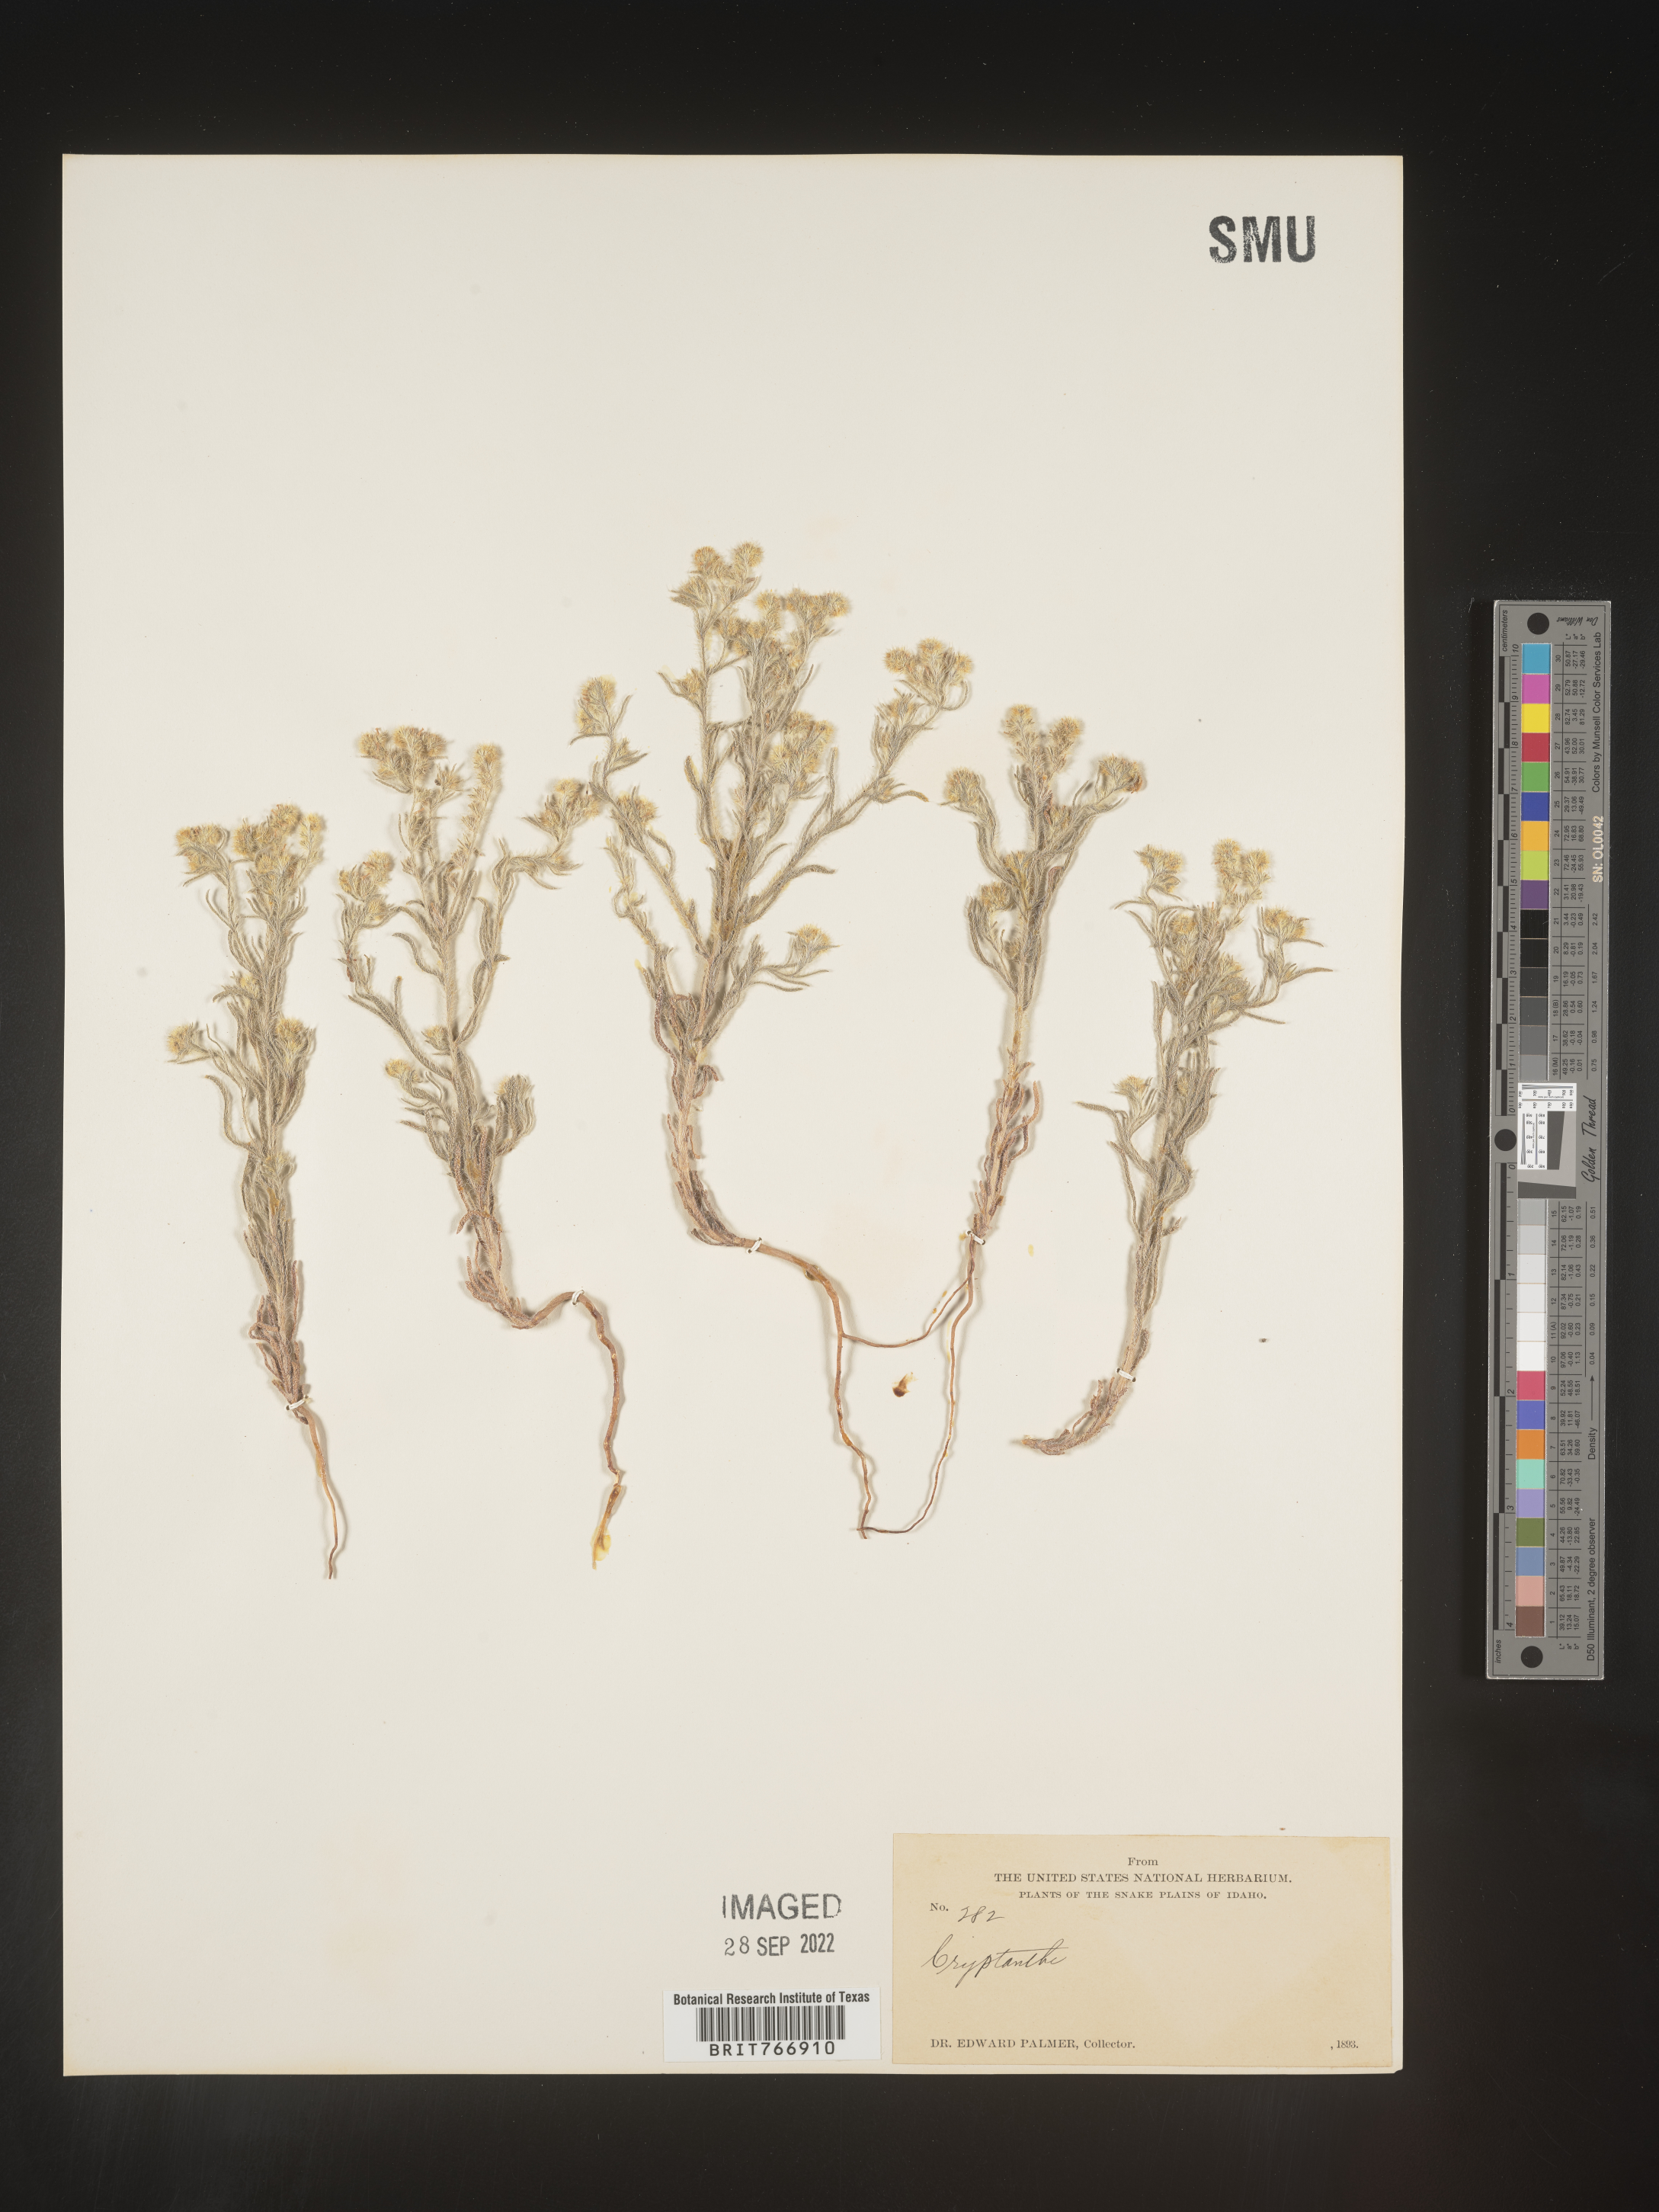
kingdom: Plantae
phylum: Tracheophyta
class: Magnoliopsida
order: Boraginales
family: Boraginaceae
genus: Cryptantha
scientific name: Cryptantha
